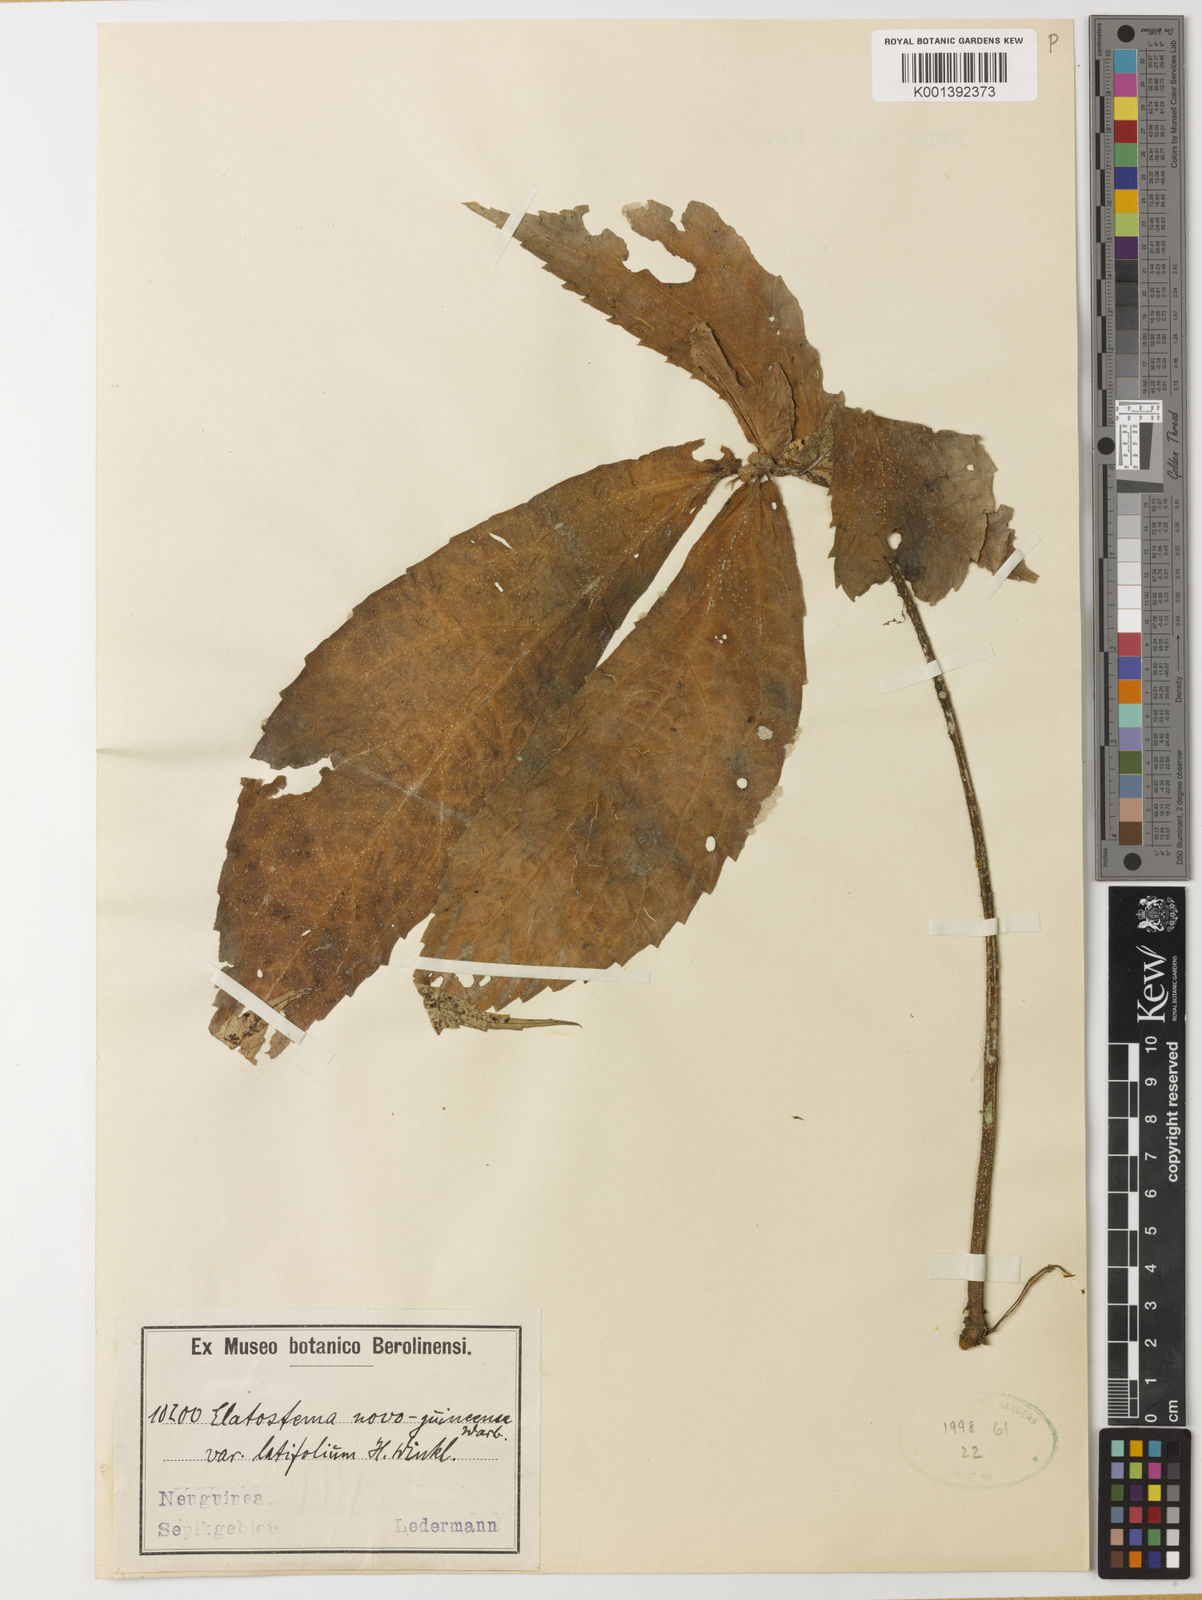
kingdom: Plantae
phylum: Tracheophyta
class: Magnoliopsida
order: Rosales
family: Urticaceae
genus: Elatostema
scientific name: Elatostema novoguineense
